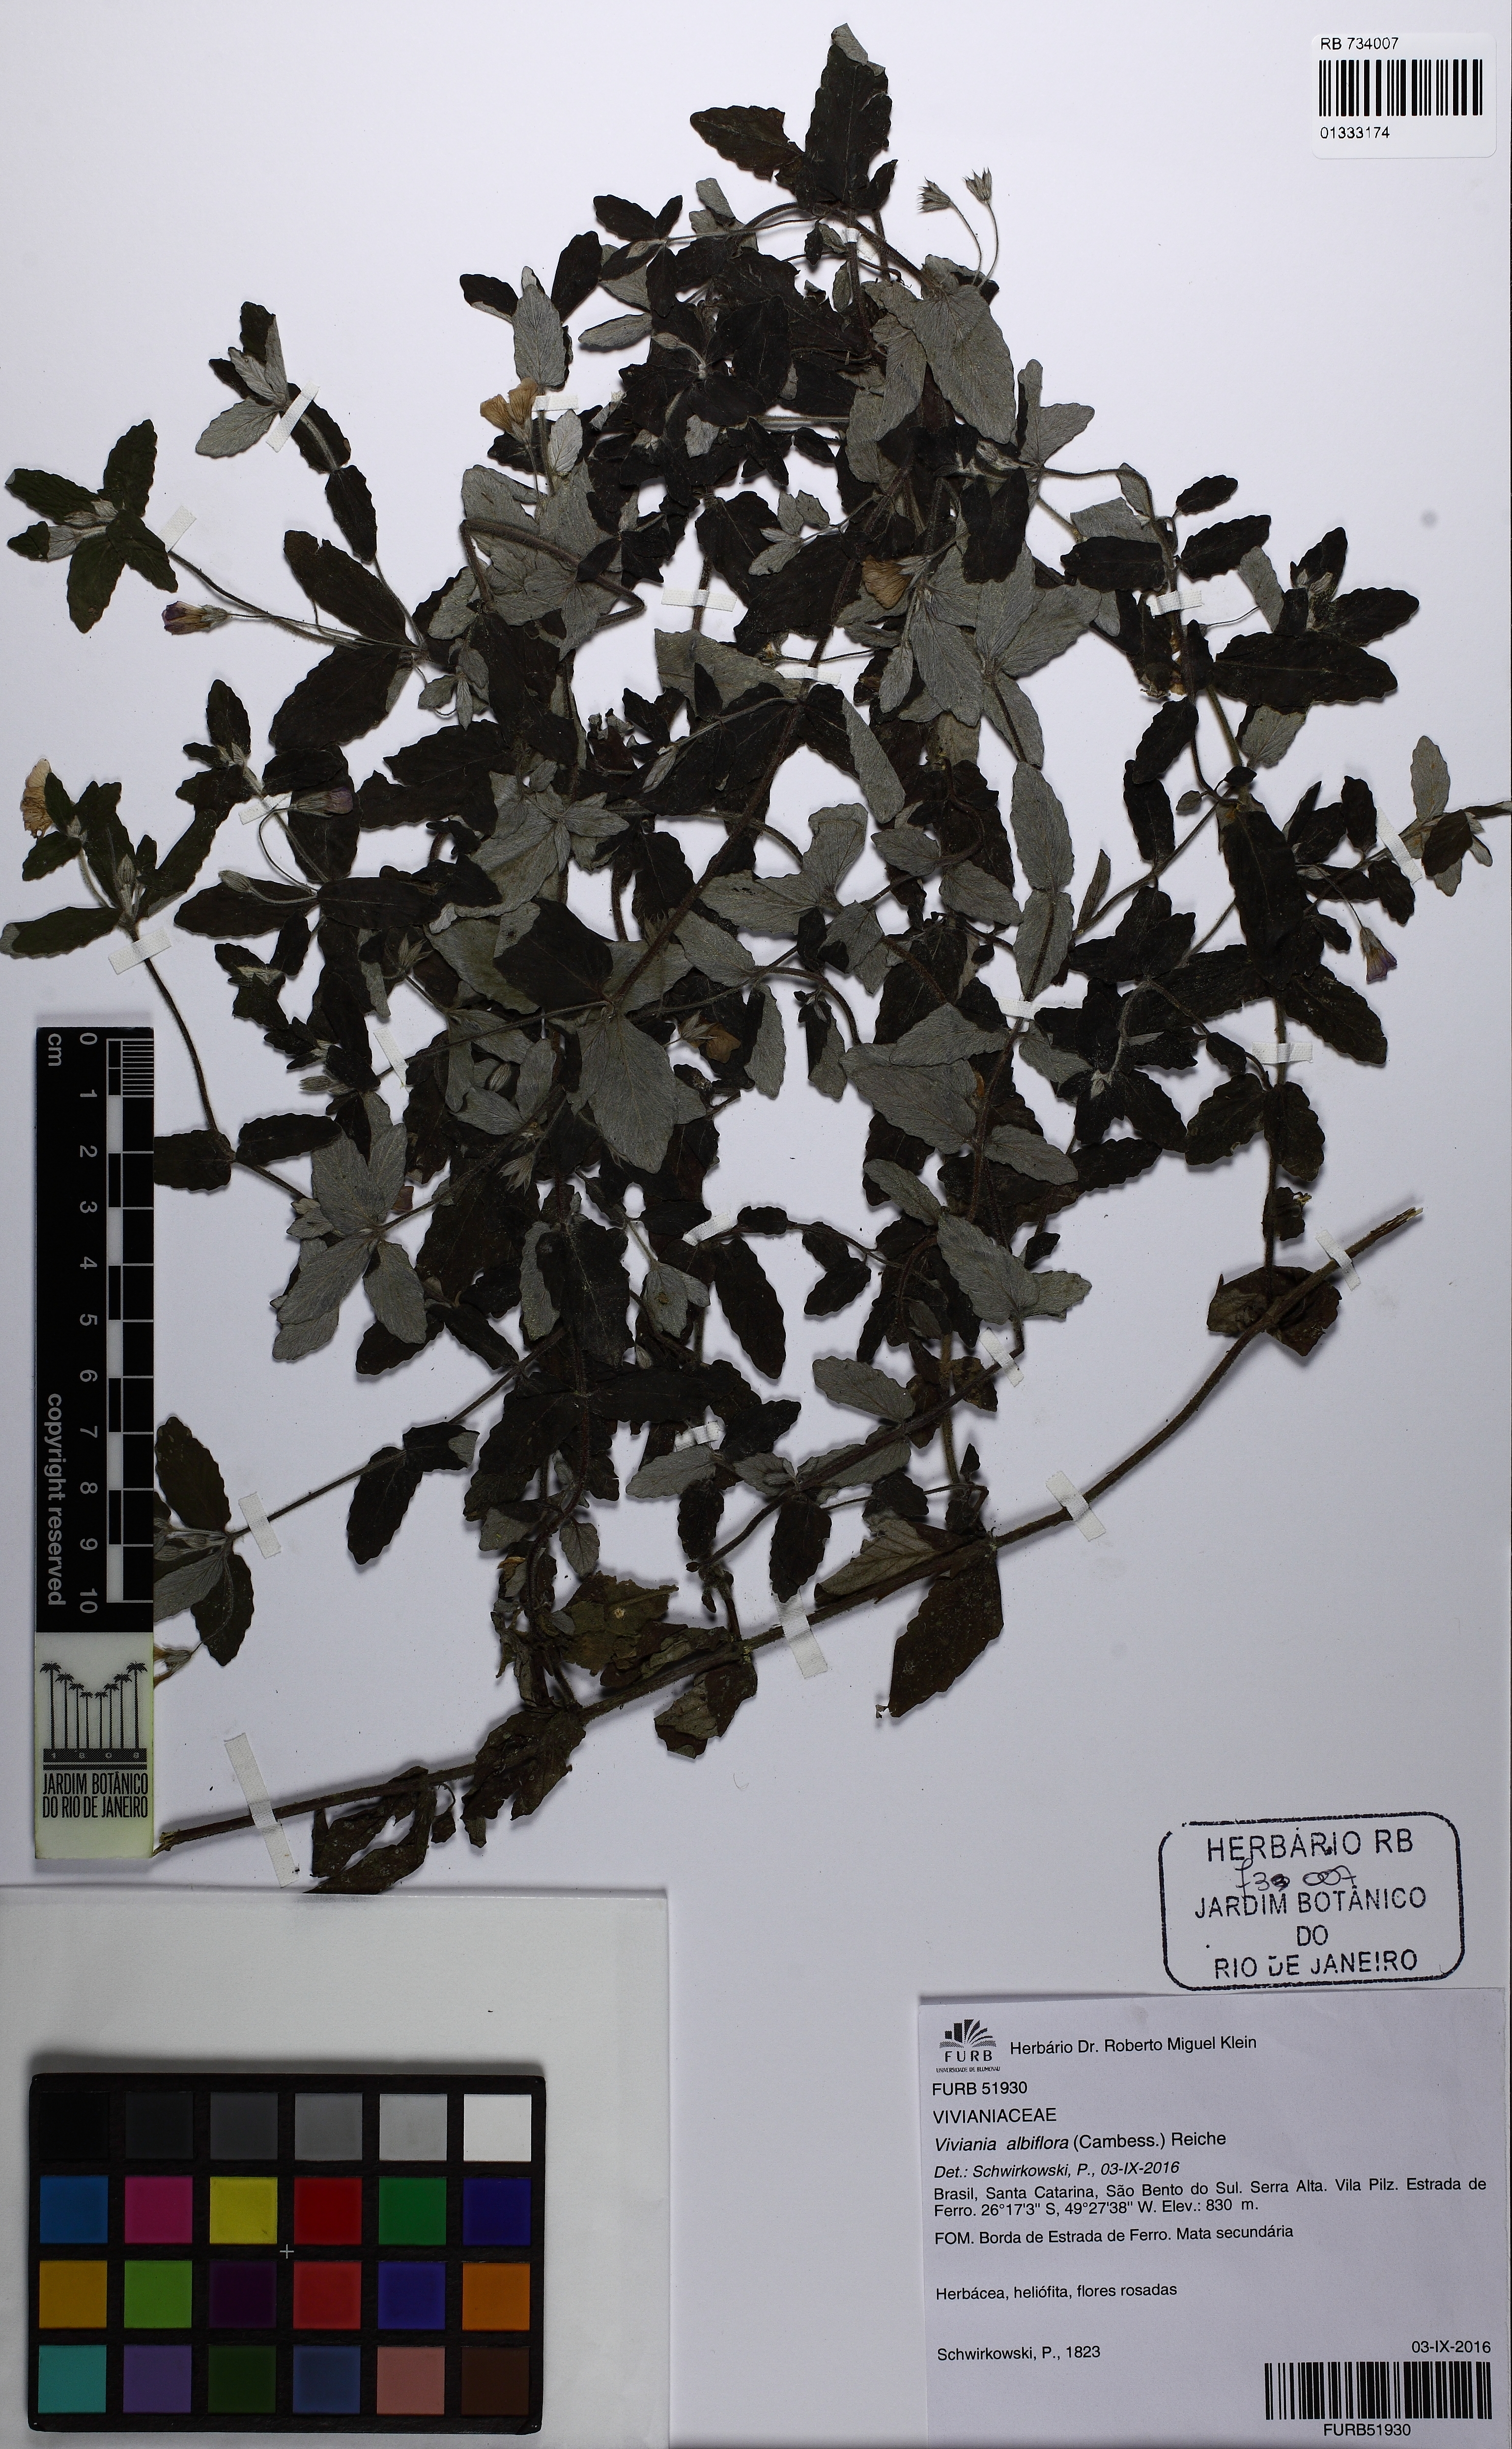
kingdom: Plantae
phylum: Tracheophyta
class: Magnoliopsida
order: Geraniales
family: Vivianiaceae
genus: Viviania
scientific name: Viviania albiflora
